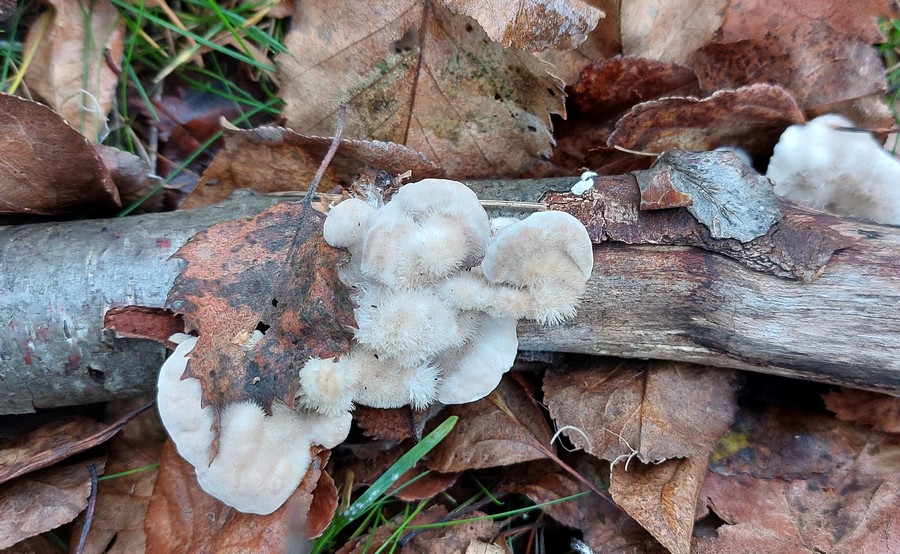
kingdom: Fungi
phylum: Basidiomycota
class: Agaricomycetes
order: Polyporales
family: Polyporaceae
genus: Trametes
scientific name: Trametes hirsuta
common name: håret læderporesvamp
